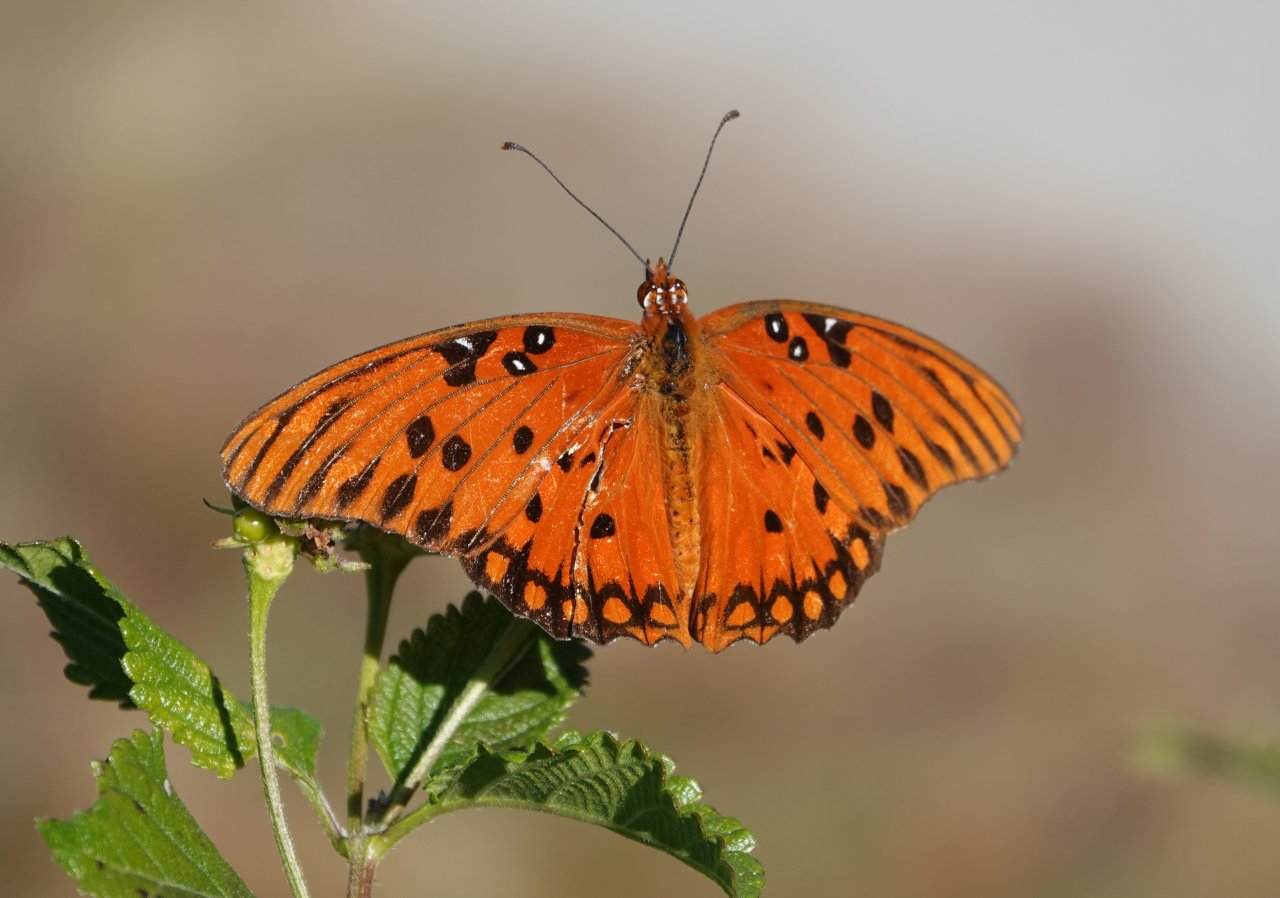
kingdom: Animalia
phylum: Arthropoda
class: Insecta
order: Lepidoptera
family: Nymphalidae
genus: Dione
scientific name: Dione vanillae
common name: Gulf Fritillary
